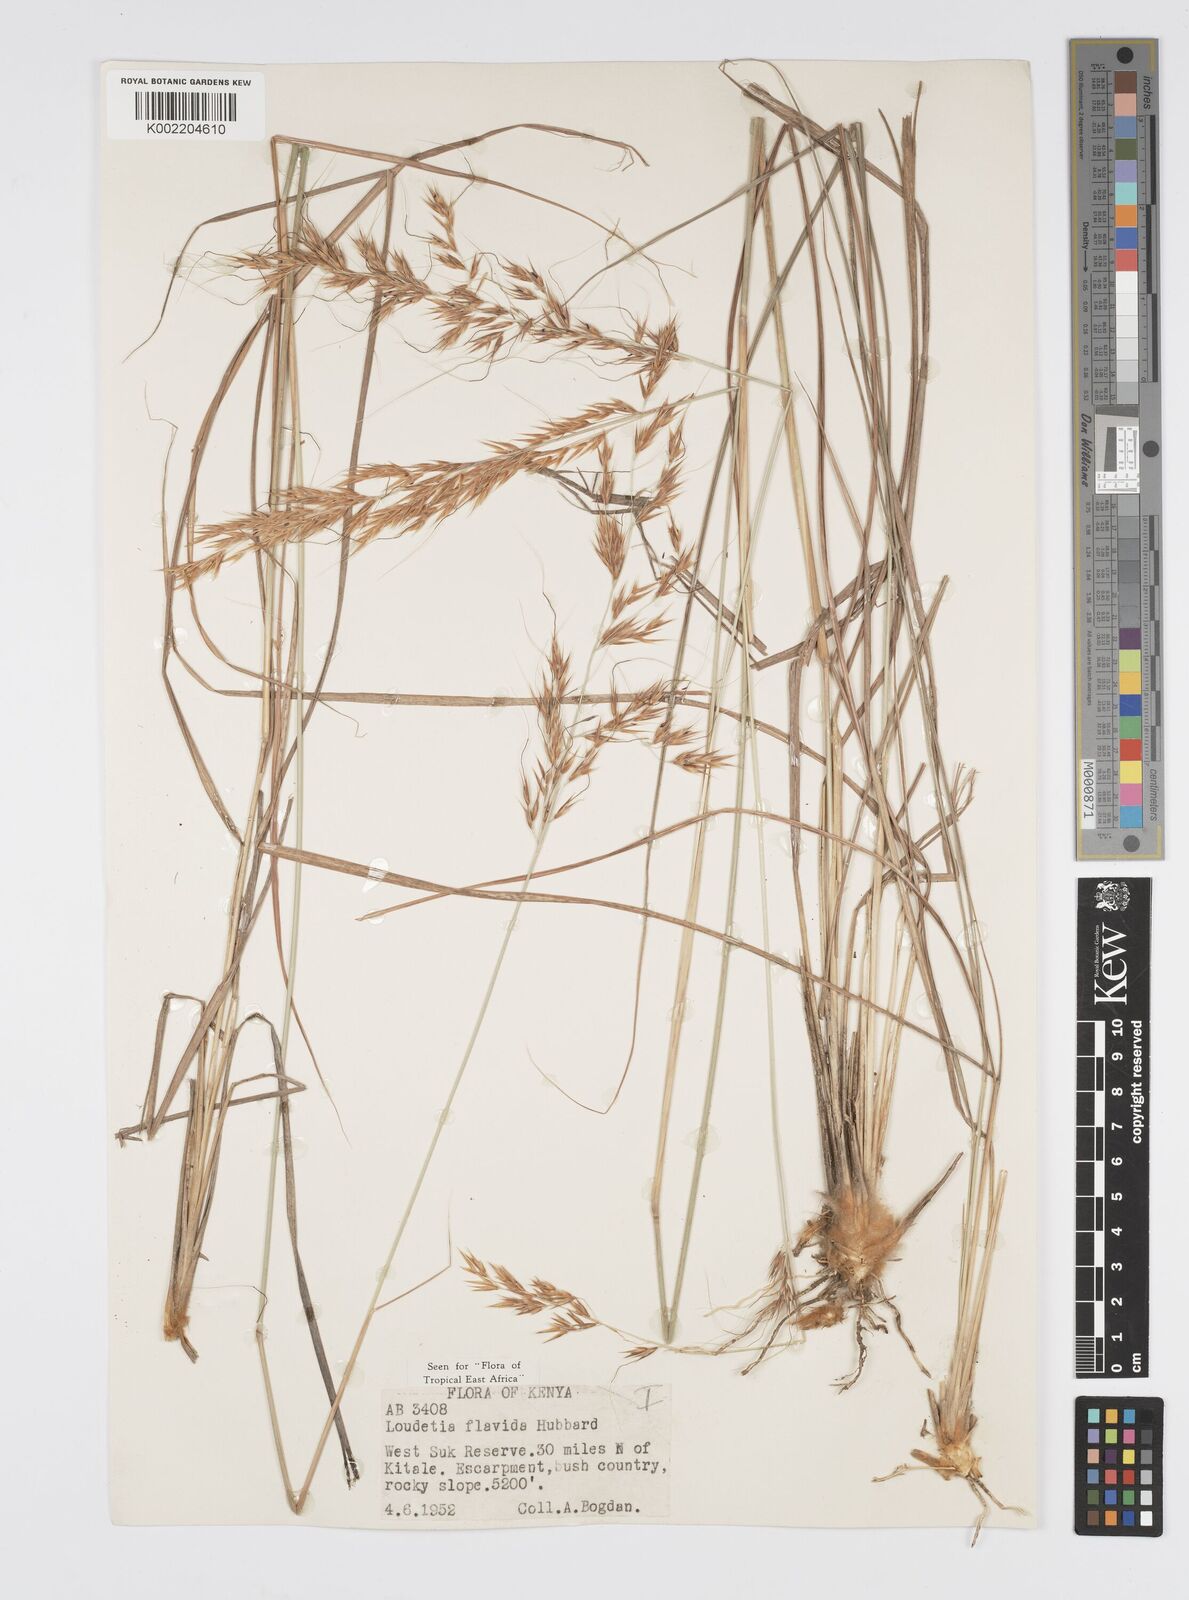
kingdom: Plantae
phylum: Tracheophyta
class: Liliopsida
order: Poales
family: Poaceae
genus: Loudetia
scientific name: Loudetia flavida
